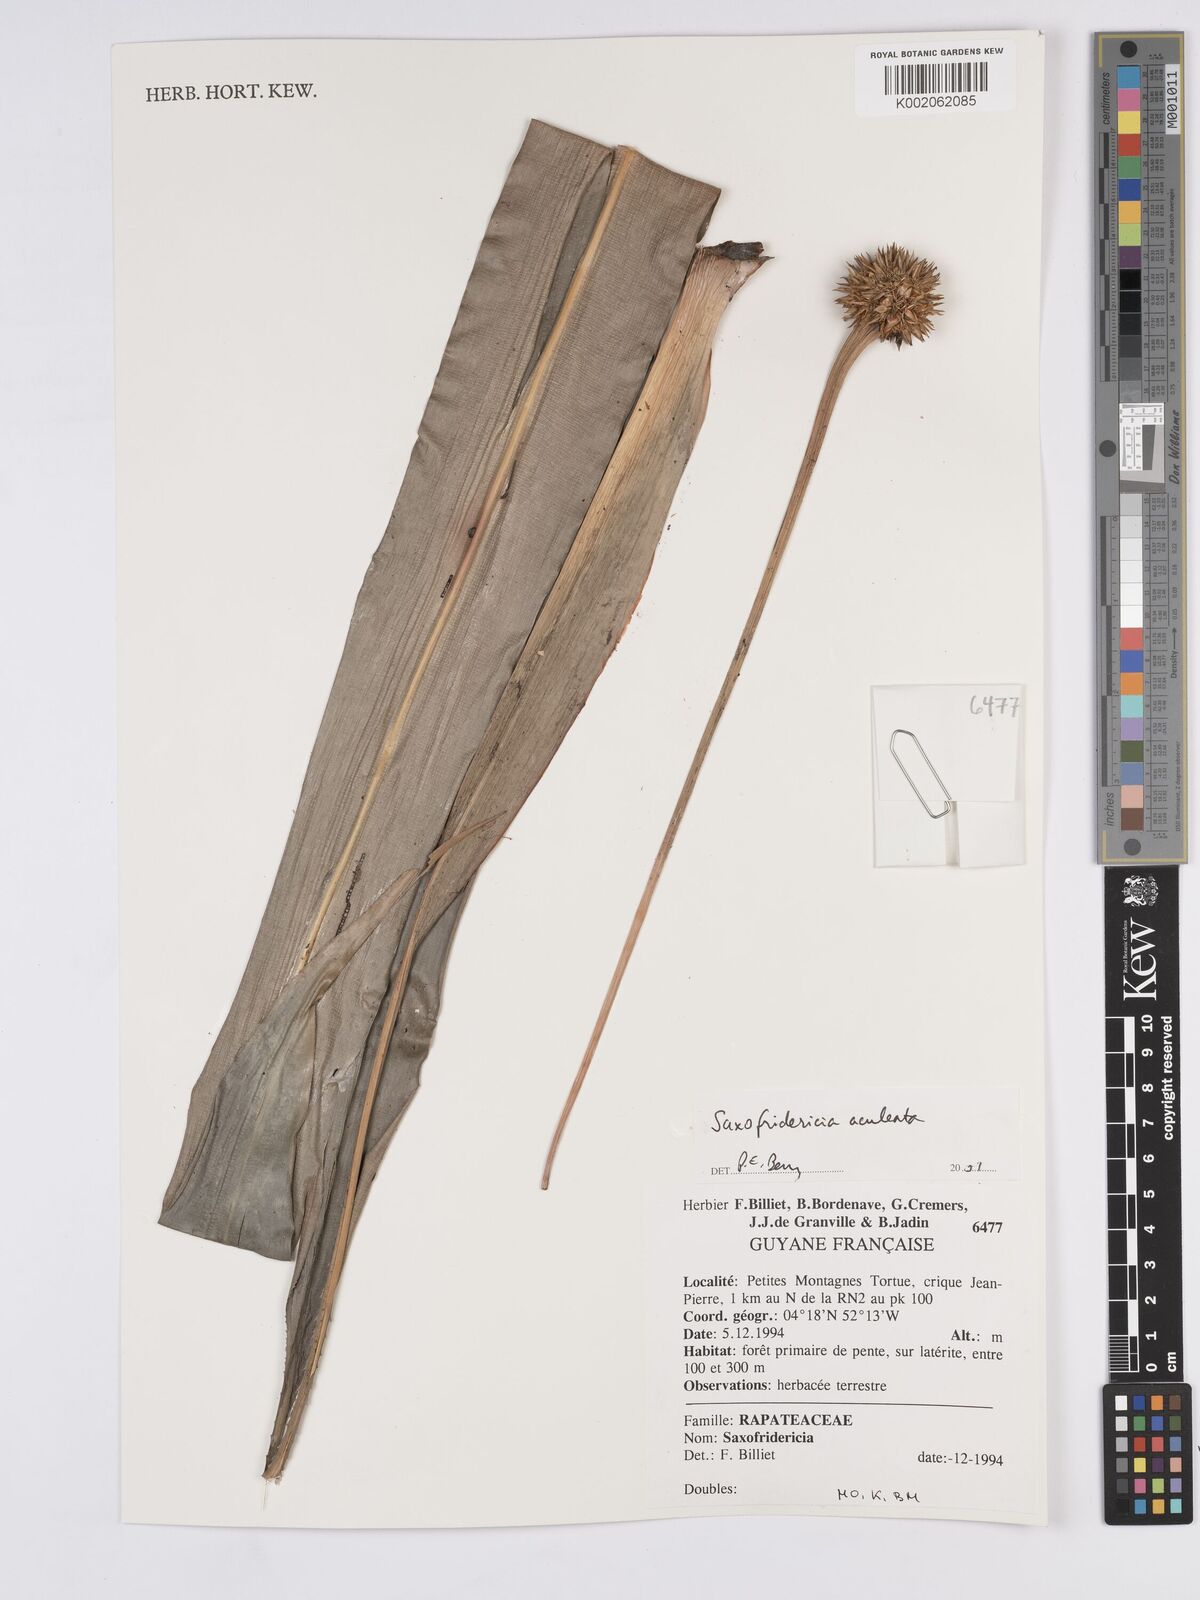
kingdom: Plantae
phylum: Tracheophyta
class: Liliopsida
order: Poales
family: Rapateaceae
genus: Saxofridericia
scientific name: Saxofridericia aculeata
